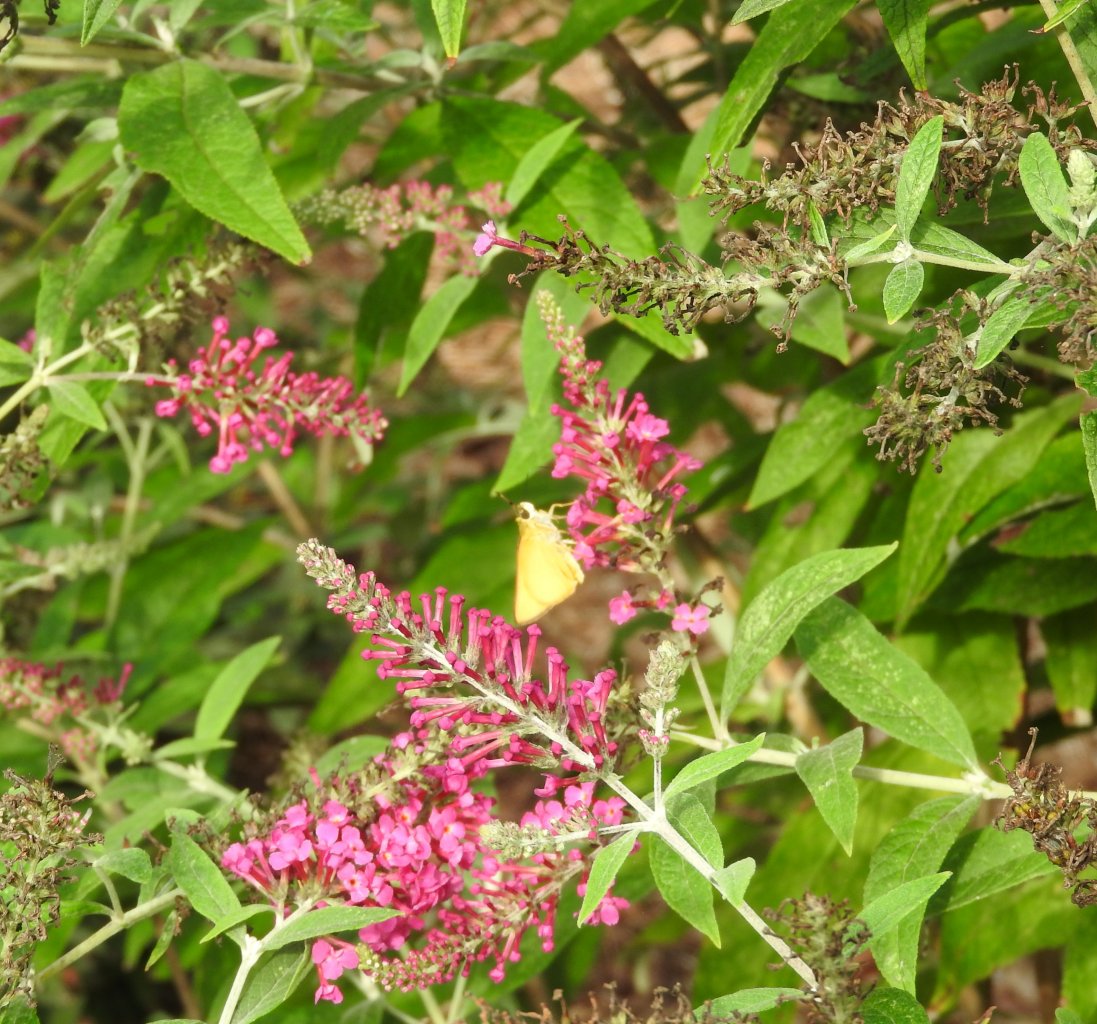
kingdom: Animalia
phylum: Arthropoda
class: Insecta
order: Lepidoptera
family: Hesperiidae
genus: Atrytone
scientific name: Atrytone delaware
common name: Delaware Skipper
